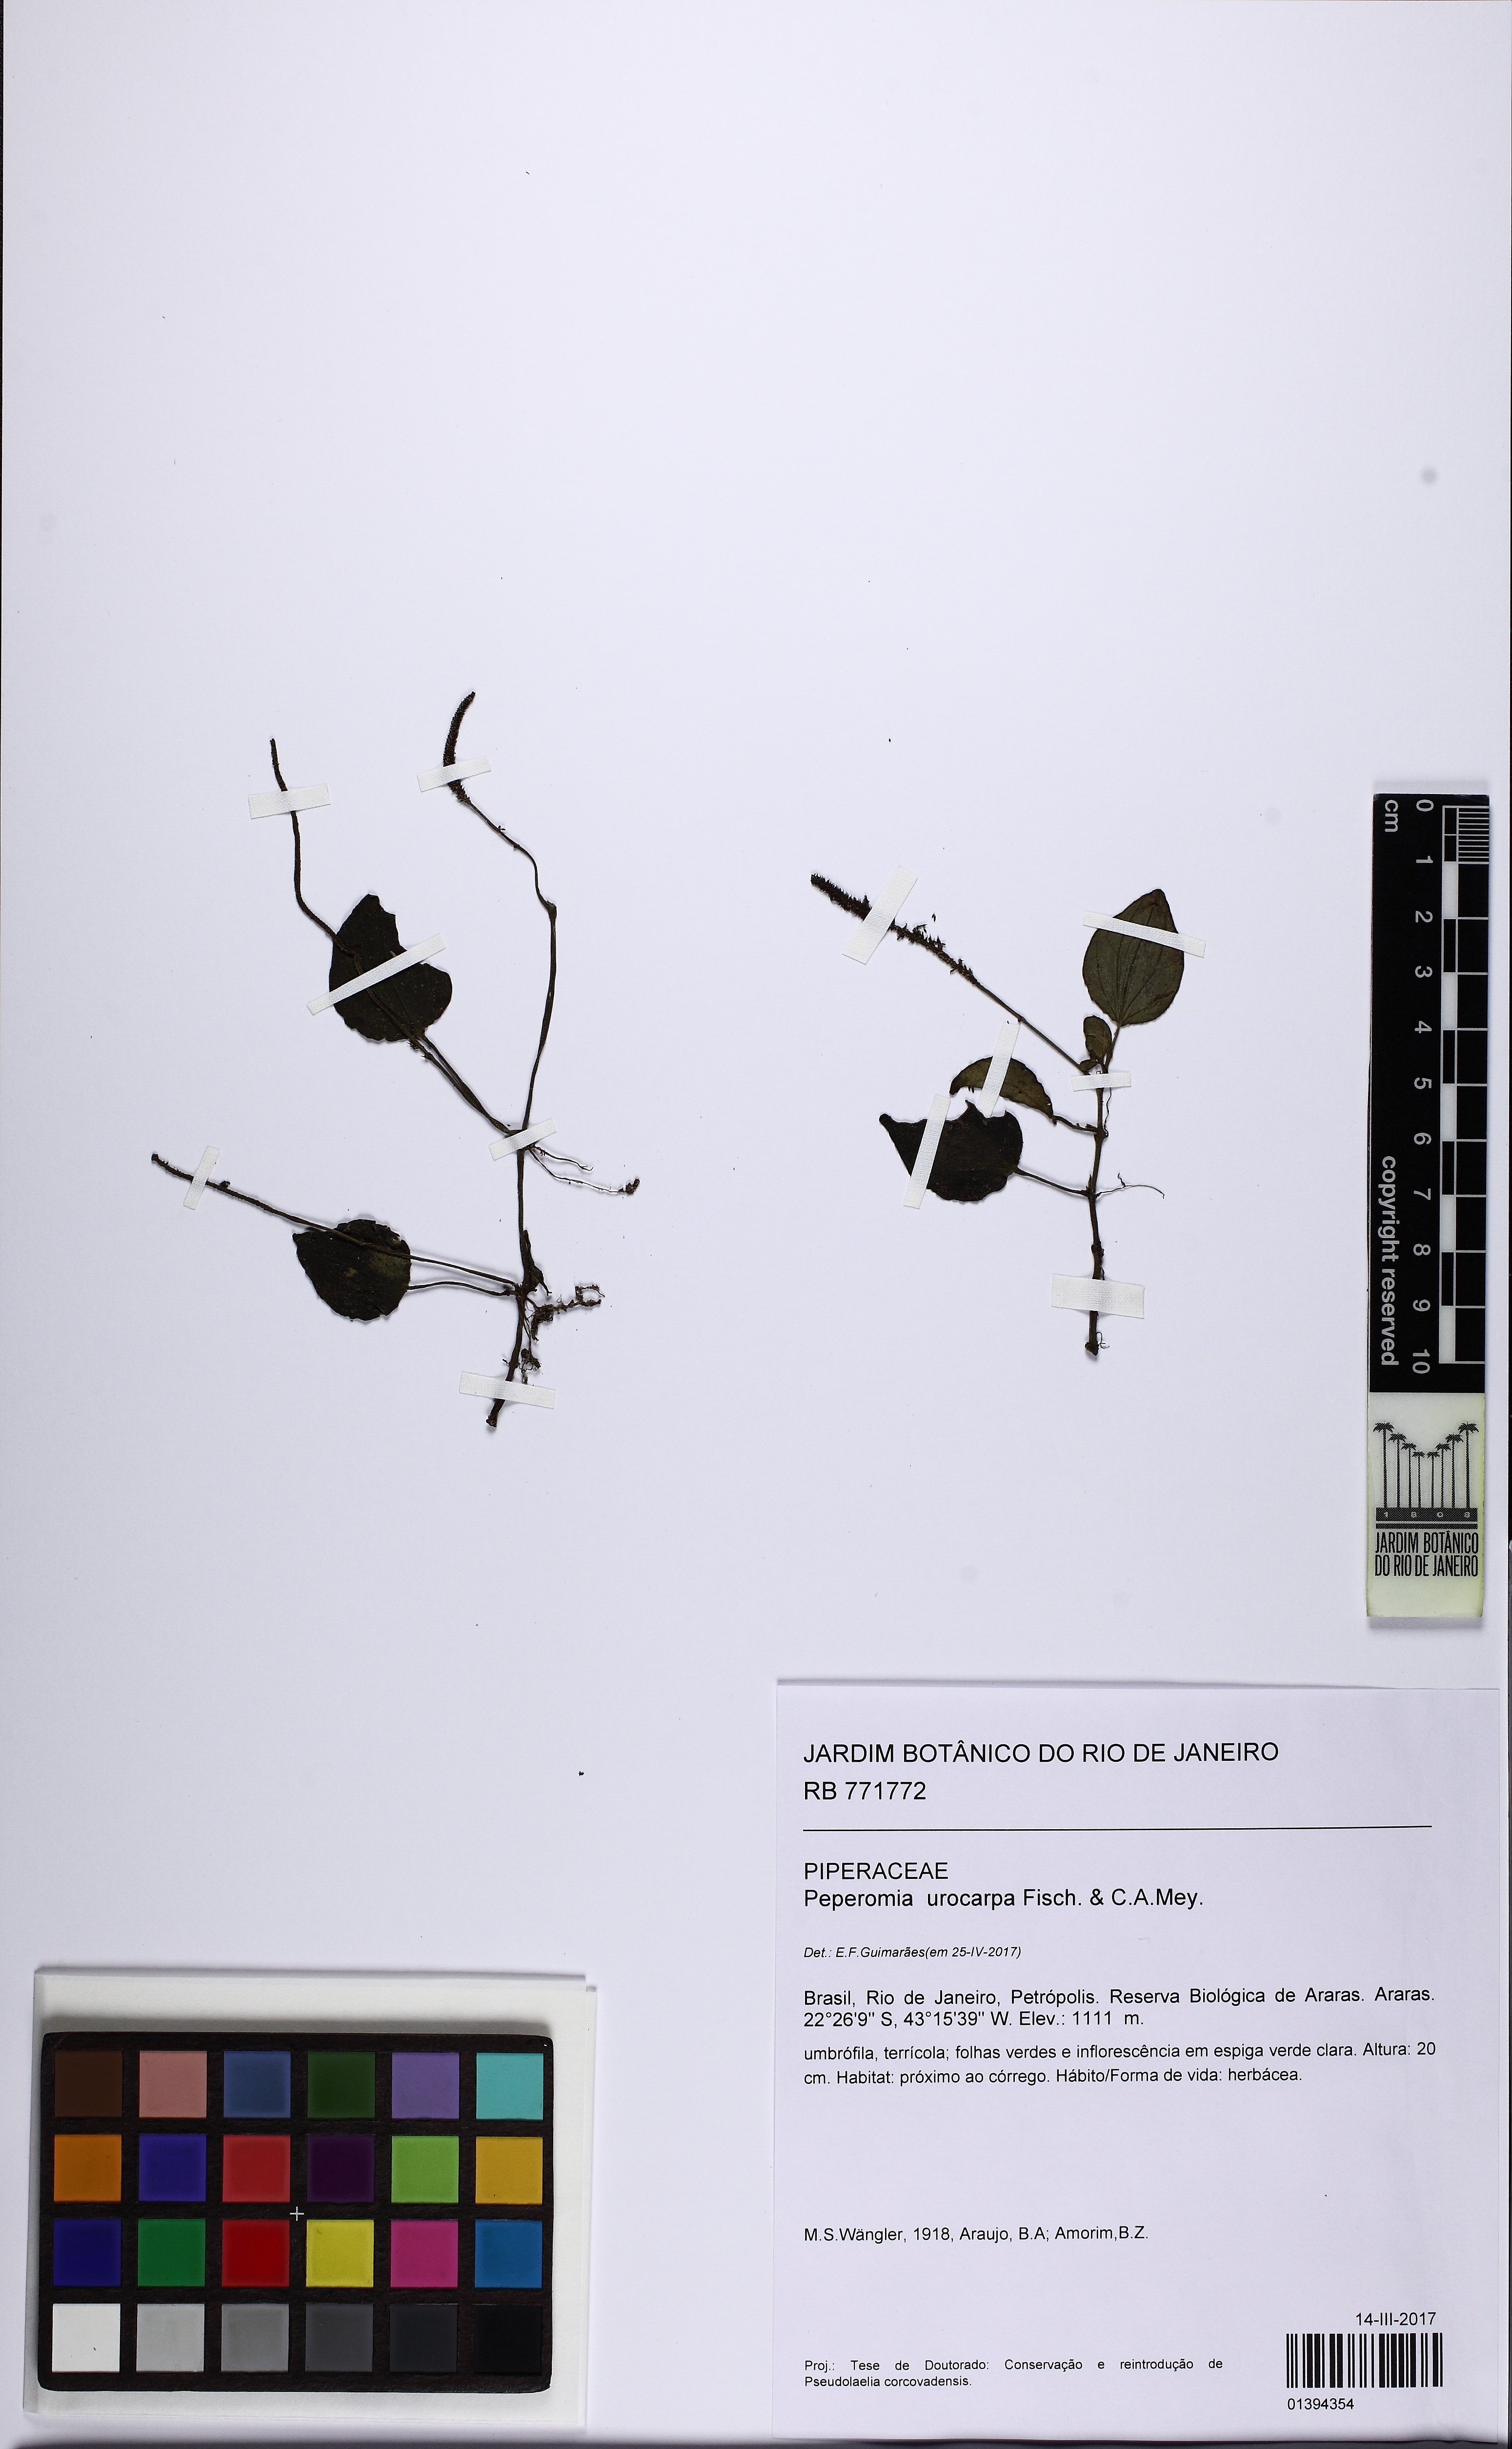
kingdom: Plantae
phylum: Tracheophyta
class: Magnoliopsida
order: Piperales
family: Piperaceae
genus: Peperomia
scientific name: Peperomia urocarpa
